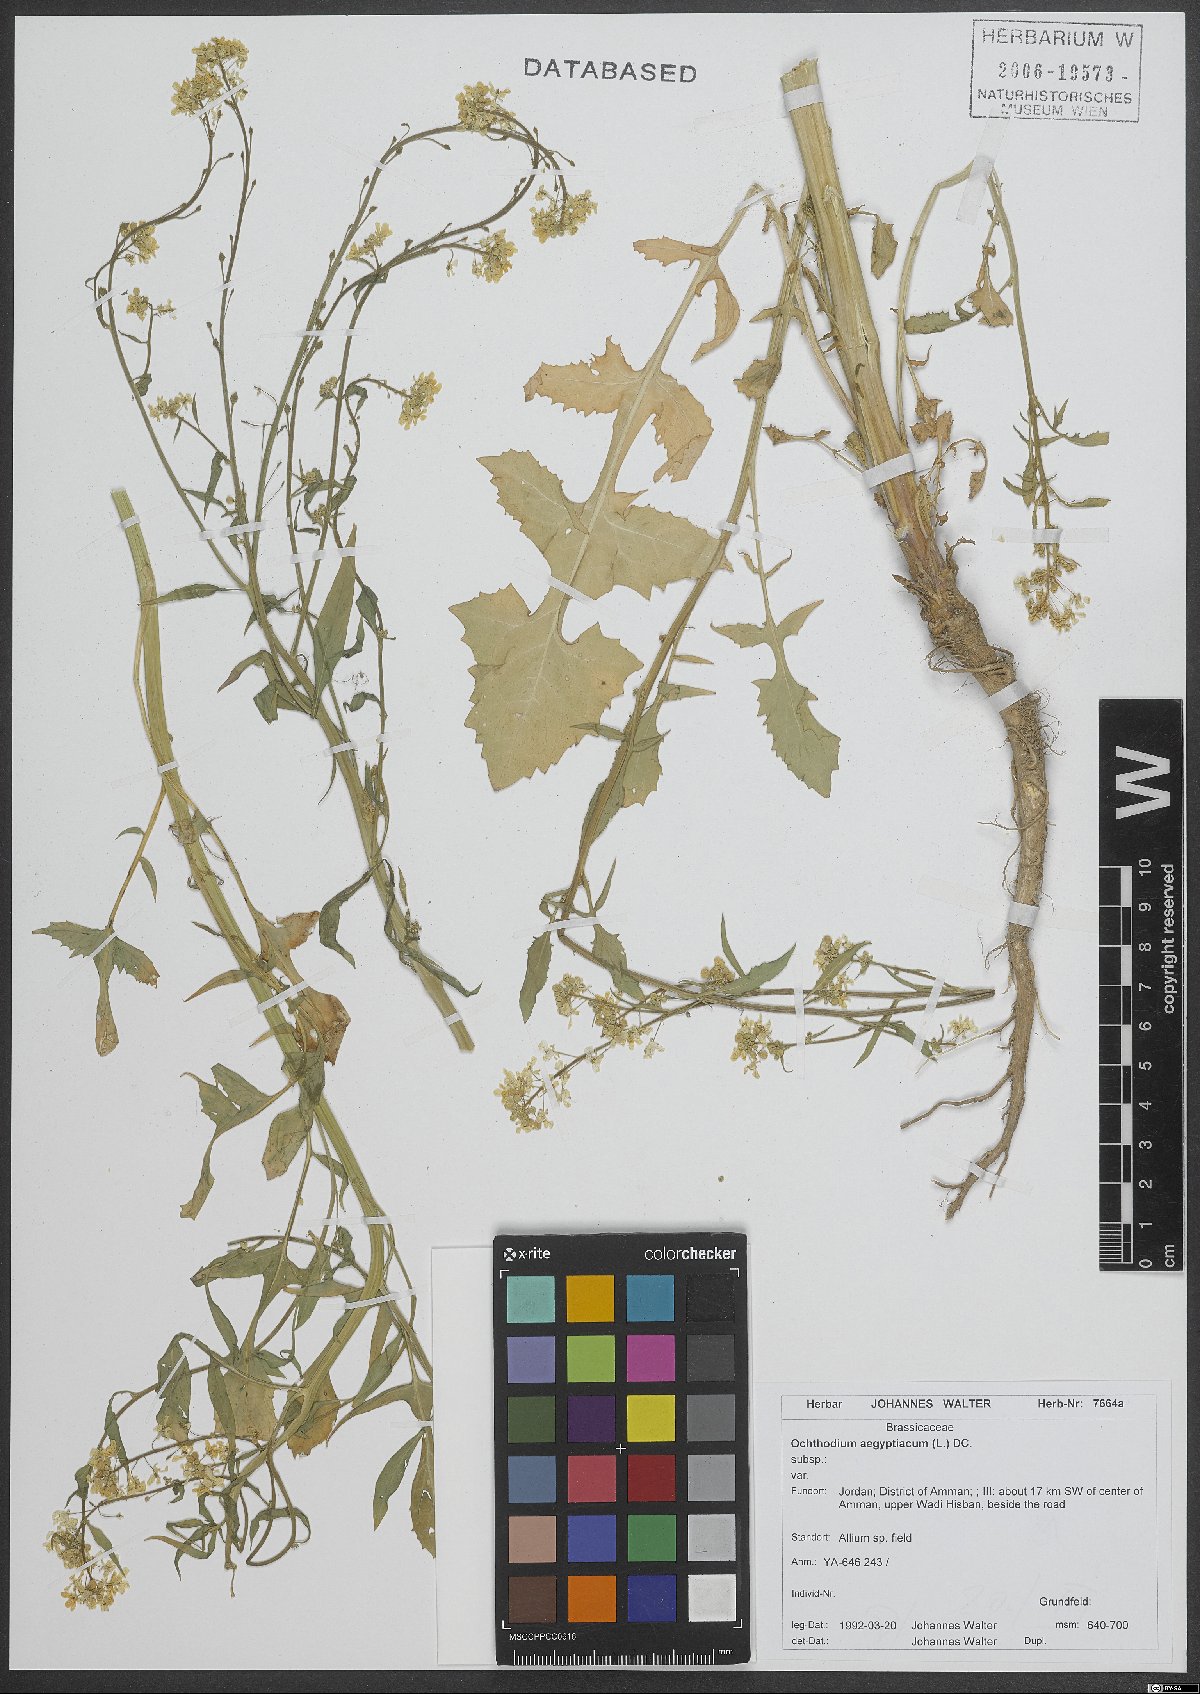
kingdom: Plantae
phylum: Tracheophyta
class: Magnoliopsida
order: Brassicales
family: Brassicaceae
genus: Ochthodium
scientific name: Ochthodium aegyptiacum
